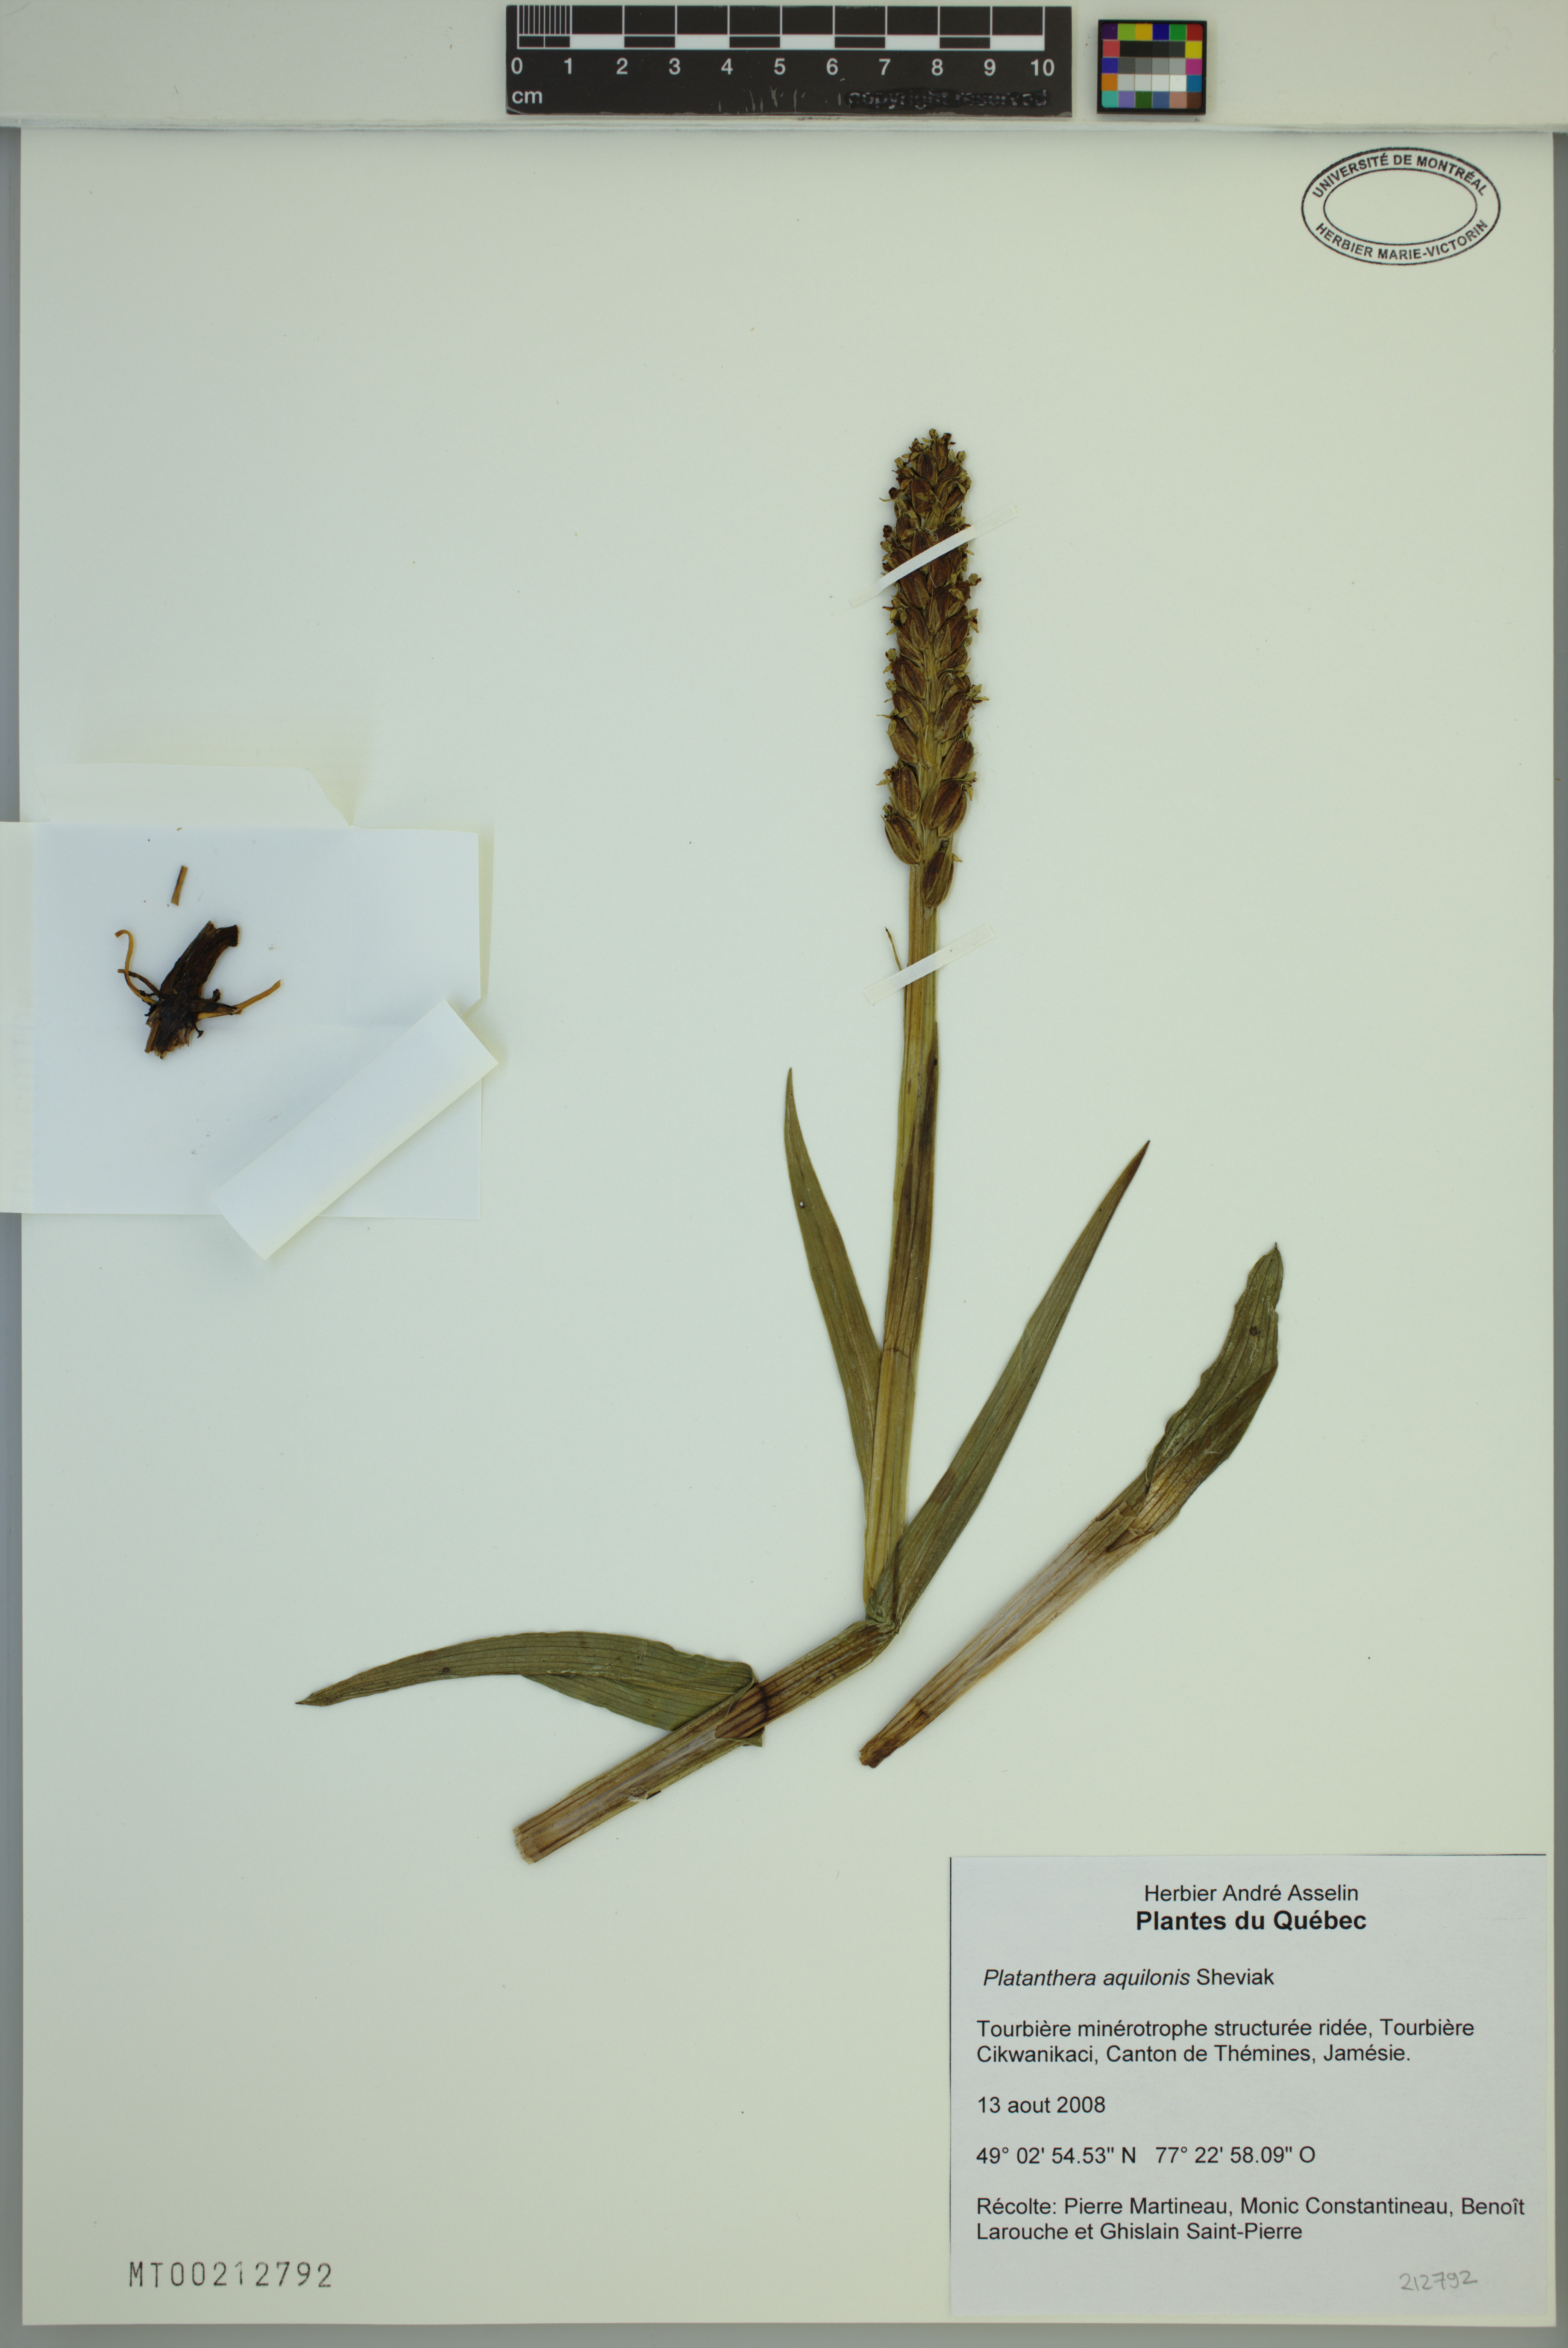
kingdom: Plantae
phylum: Tracheophyta
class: Liliopsida
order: Asparagales
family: Orchidaceae
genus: Platanthera
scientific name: Platanthera aquilonis
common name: Northern green orchid
